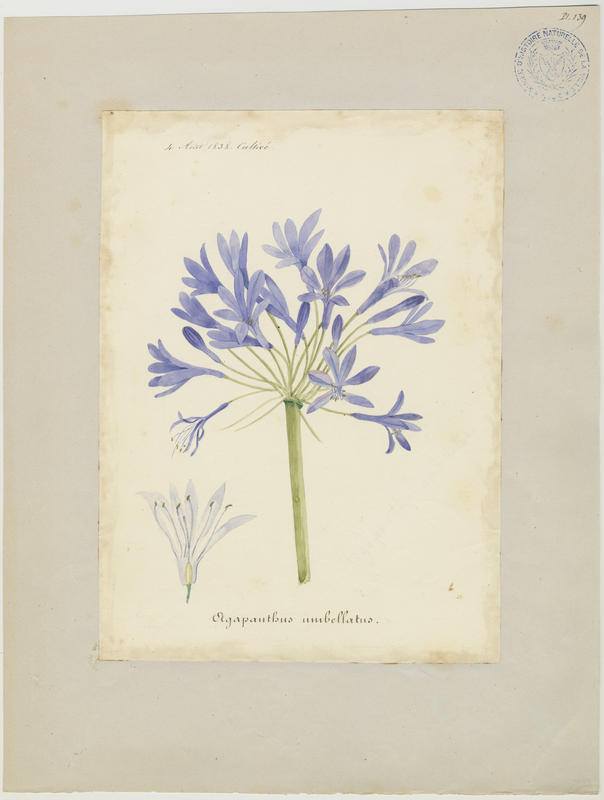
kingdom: Plantae
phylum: Tracheophyta
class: Liliopsida
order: Asparagales
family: Amaryllidaceae
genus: Agapanthus
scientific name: Agapanthus africanus
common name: Lily-of-the-nile
